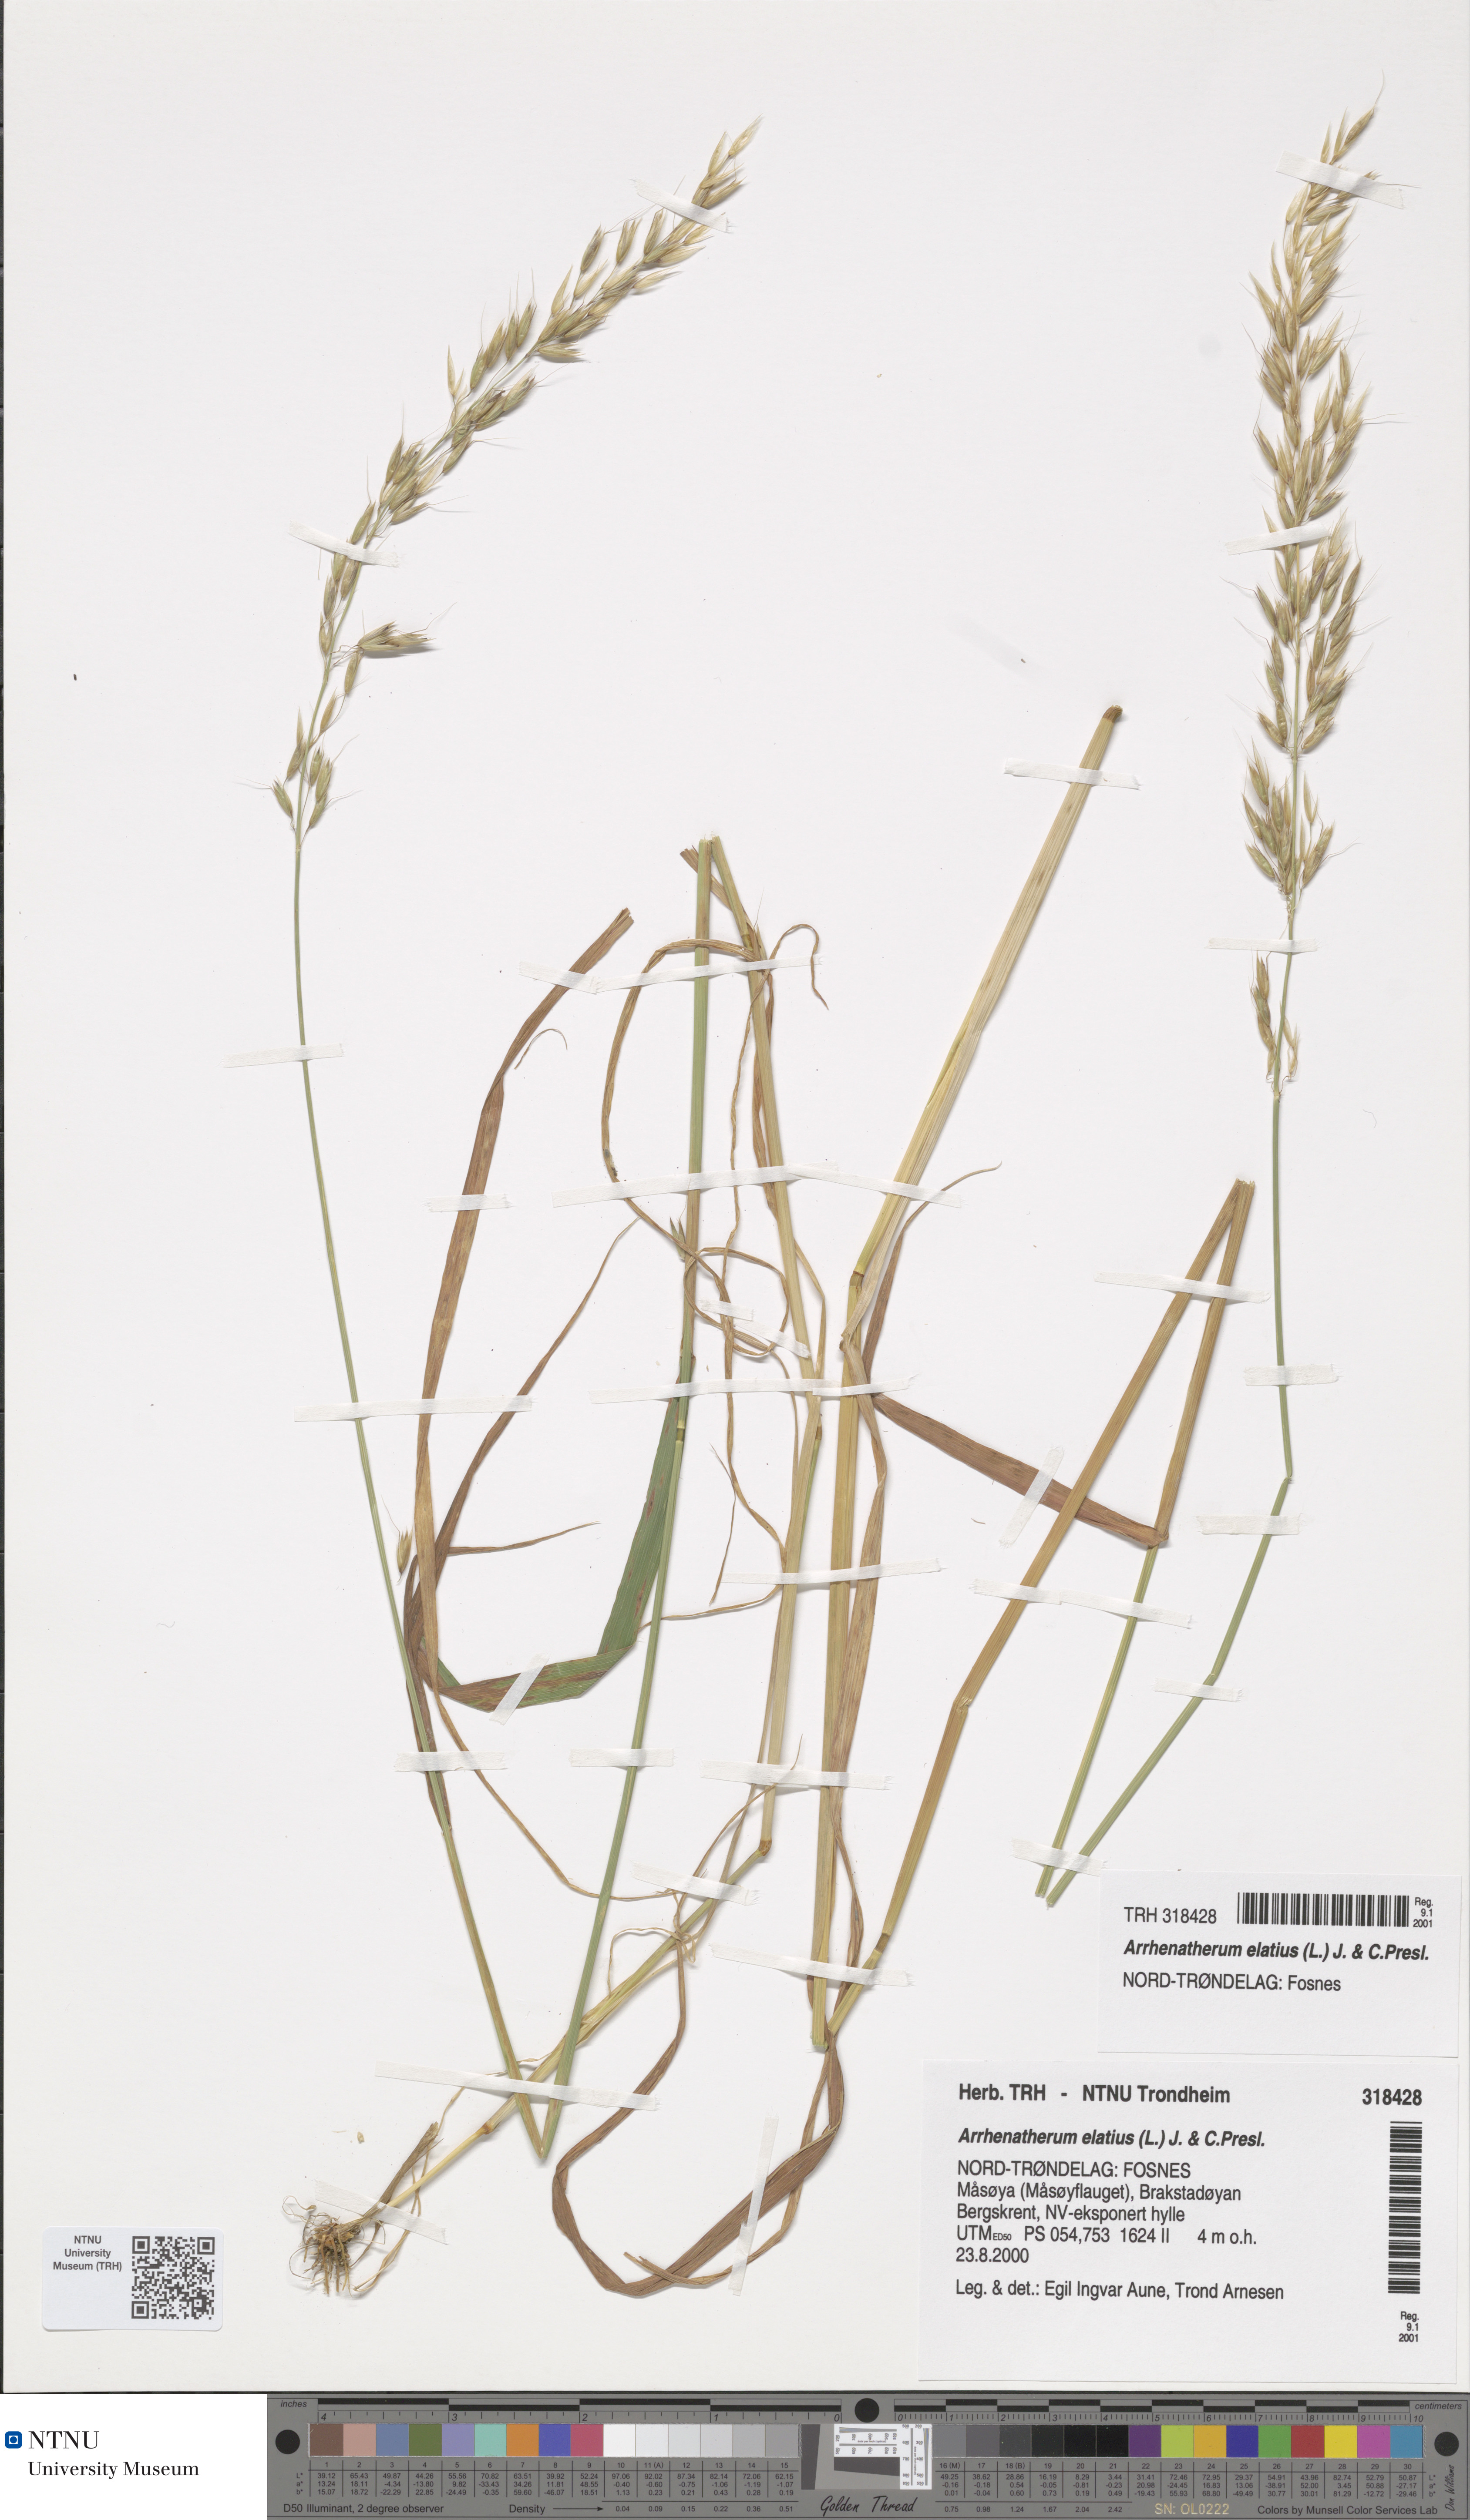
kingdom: Plantae
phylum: Tracheophyta
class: Liliopsida
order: Poales
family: Poaceae
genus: Arrhenatherum
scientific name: Arrhenatherum elatius
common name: Tall oatgrass
